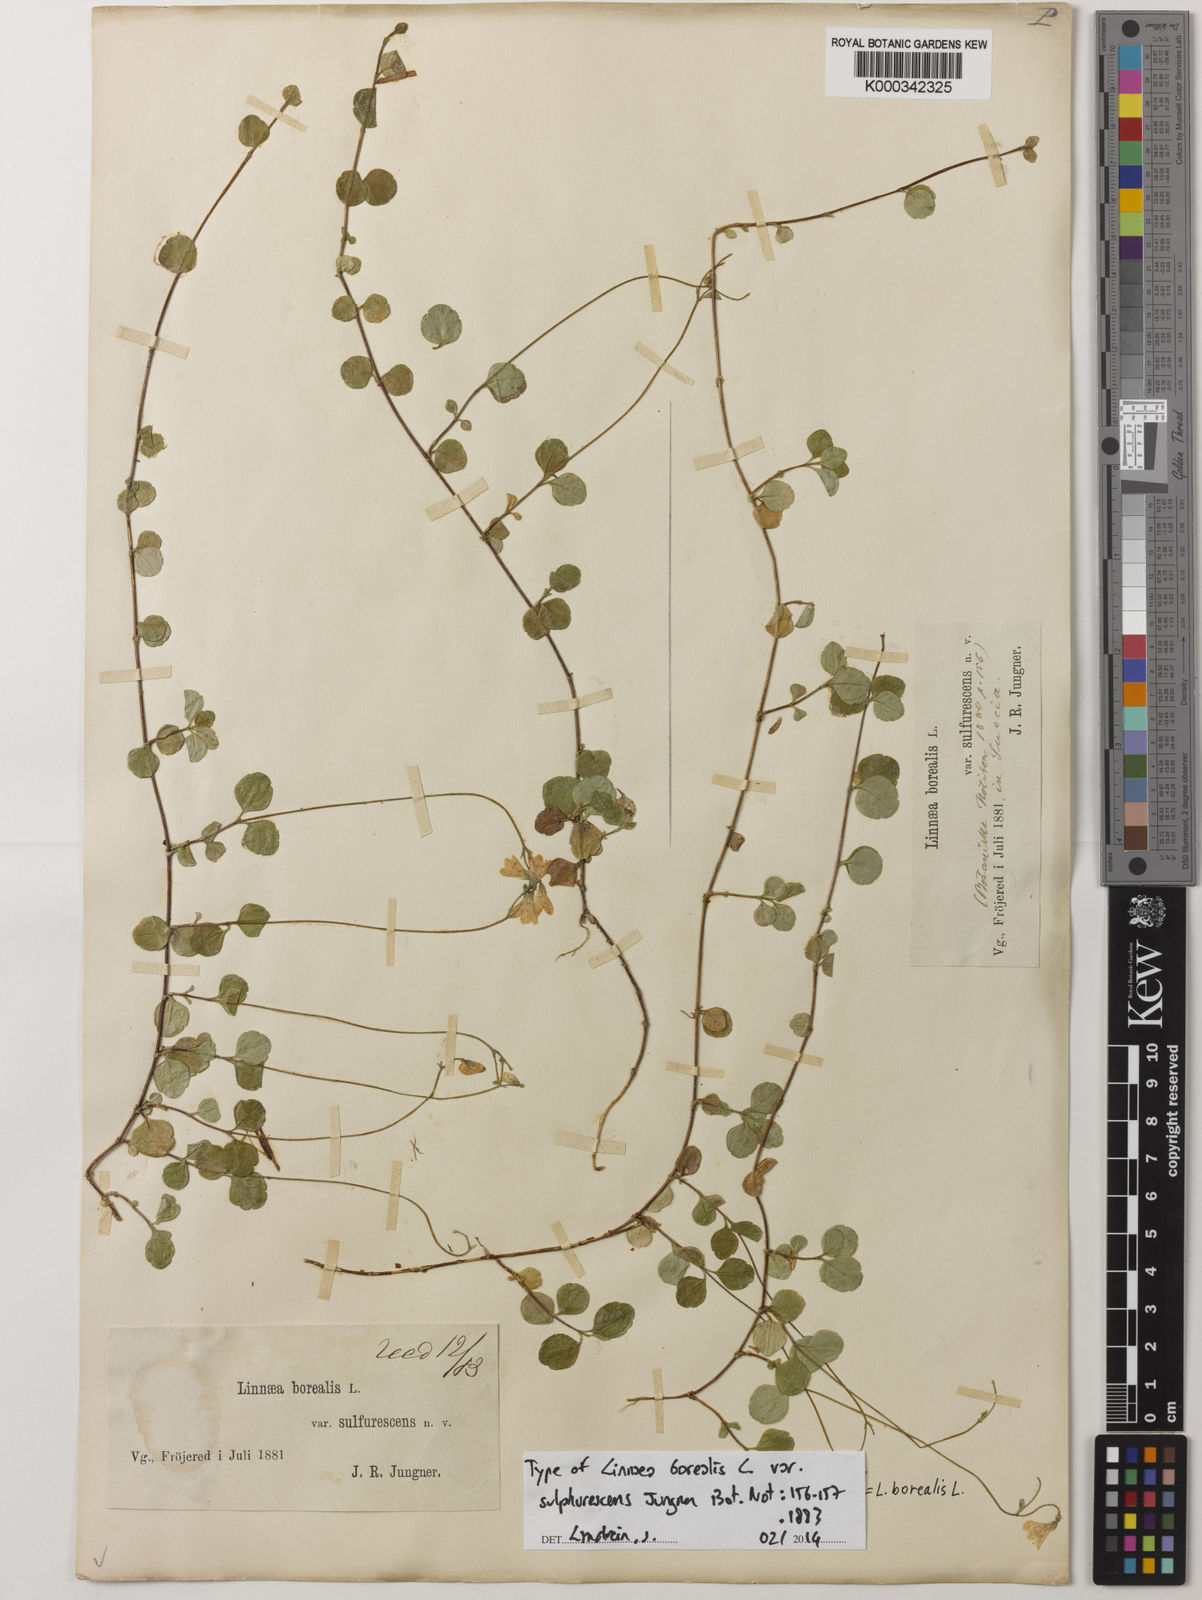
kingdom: Plantae
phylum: Tracheophyta
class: Magnoliopsida
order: Dipsacales
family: Caprifoliaceae
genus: Linnaea
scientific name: Linnaea borealis
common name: Twinflower
